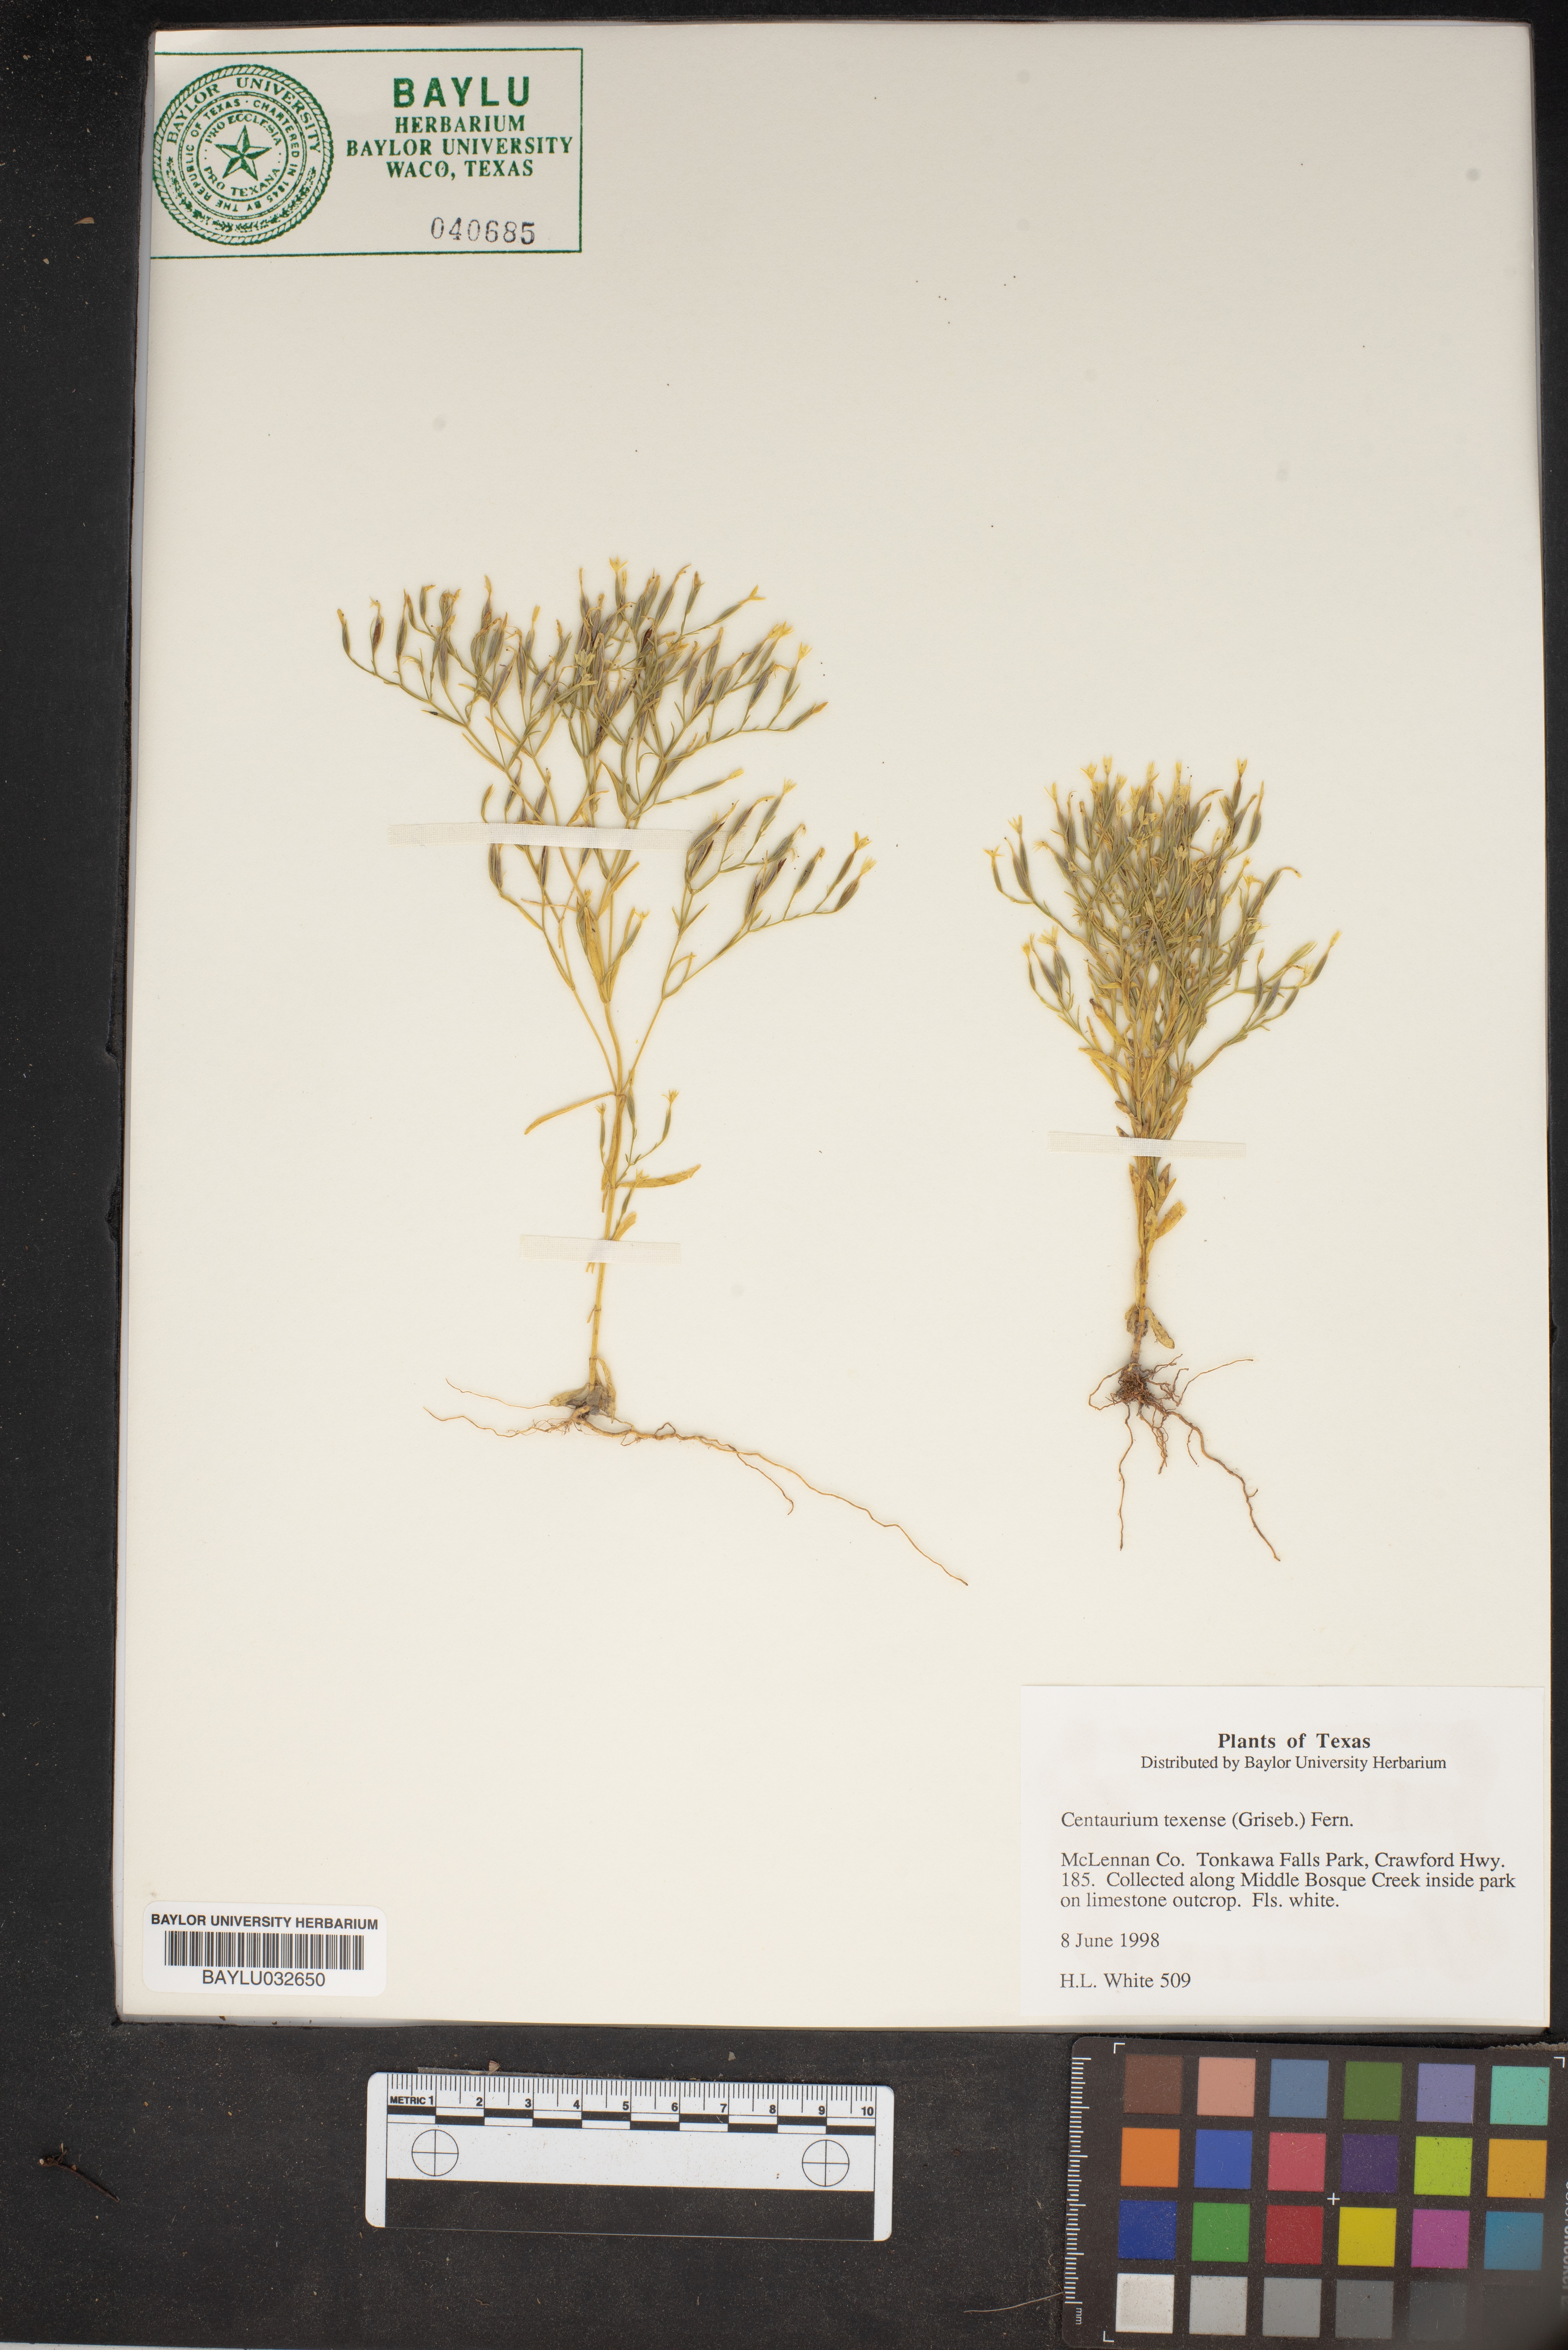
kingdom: Plantae
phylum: Tracheophyta
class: Magnoliopsida
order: Gentianales
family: Gentianaceae
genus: Zeltnera
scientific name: Zeltnera texensis
